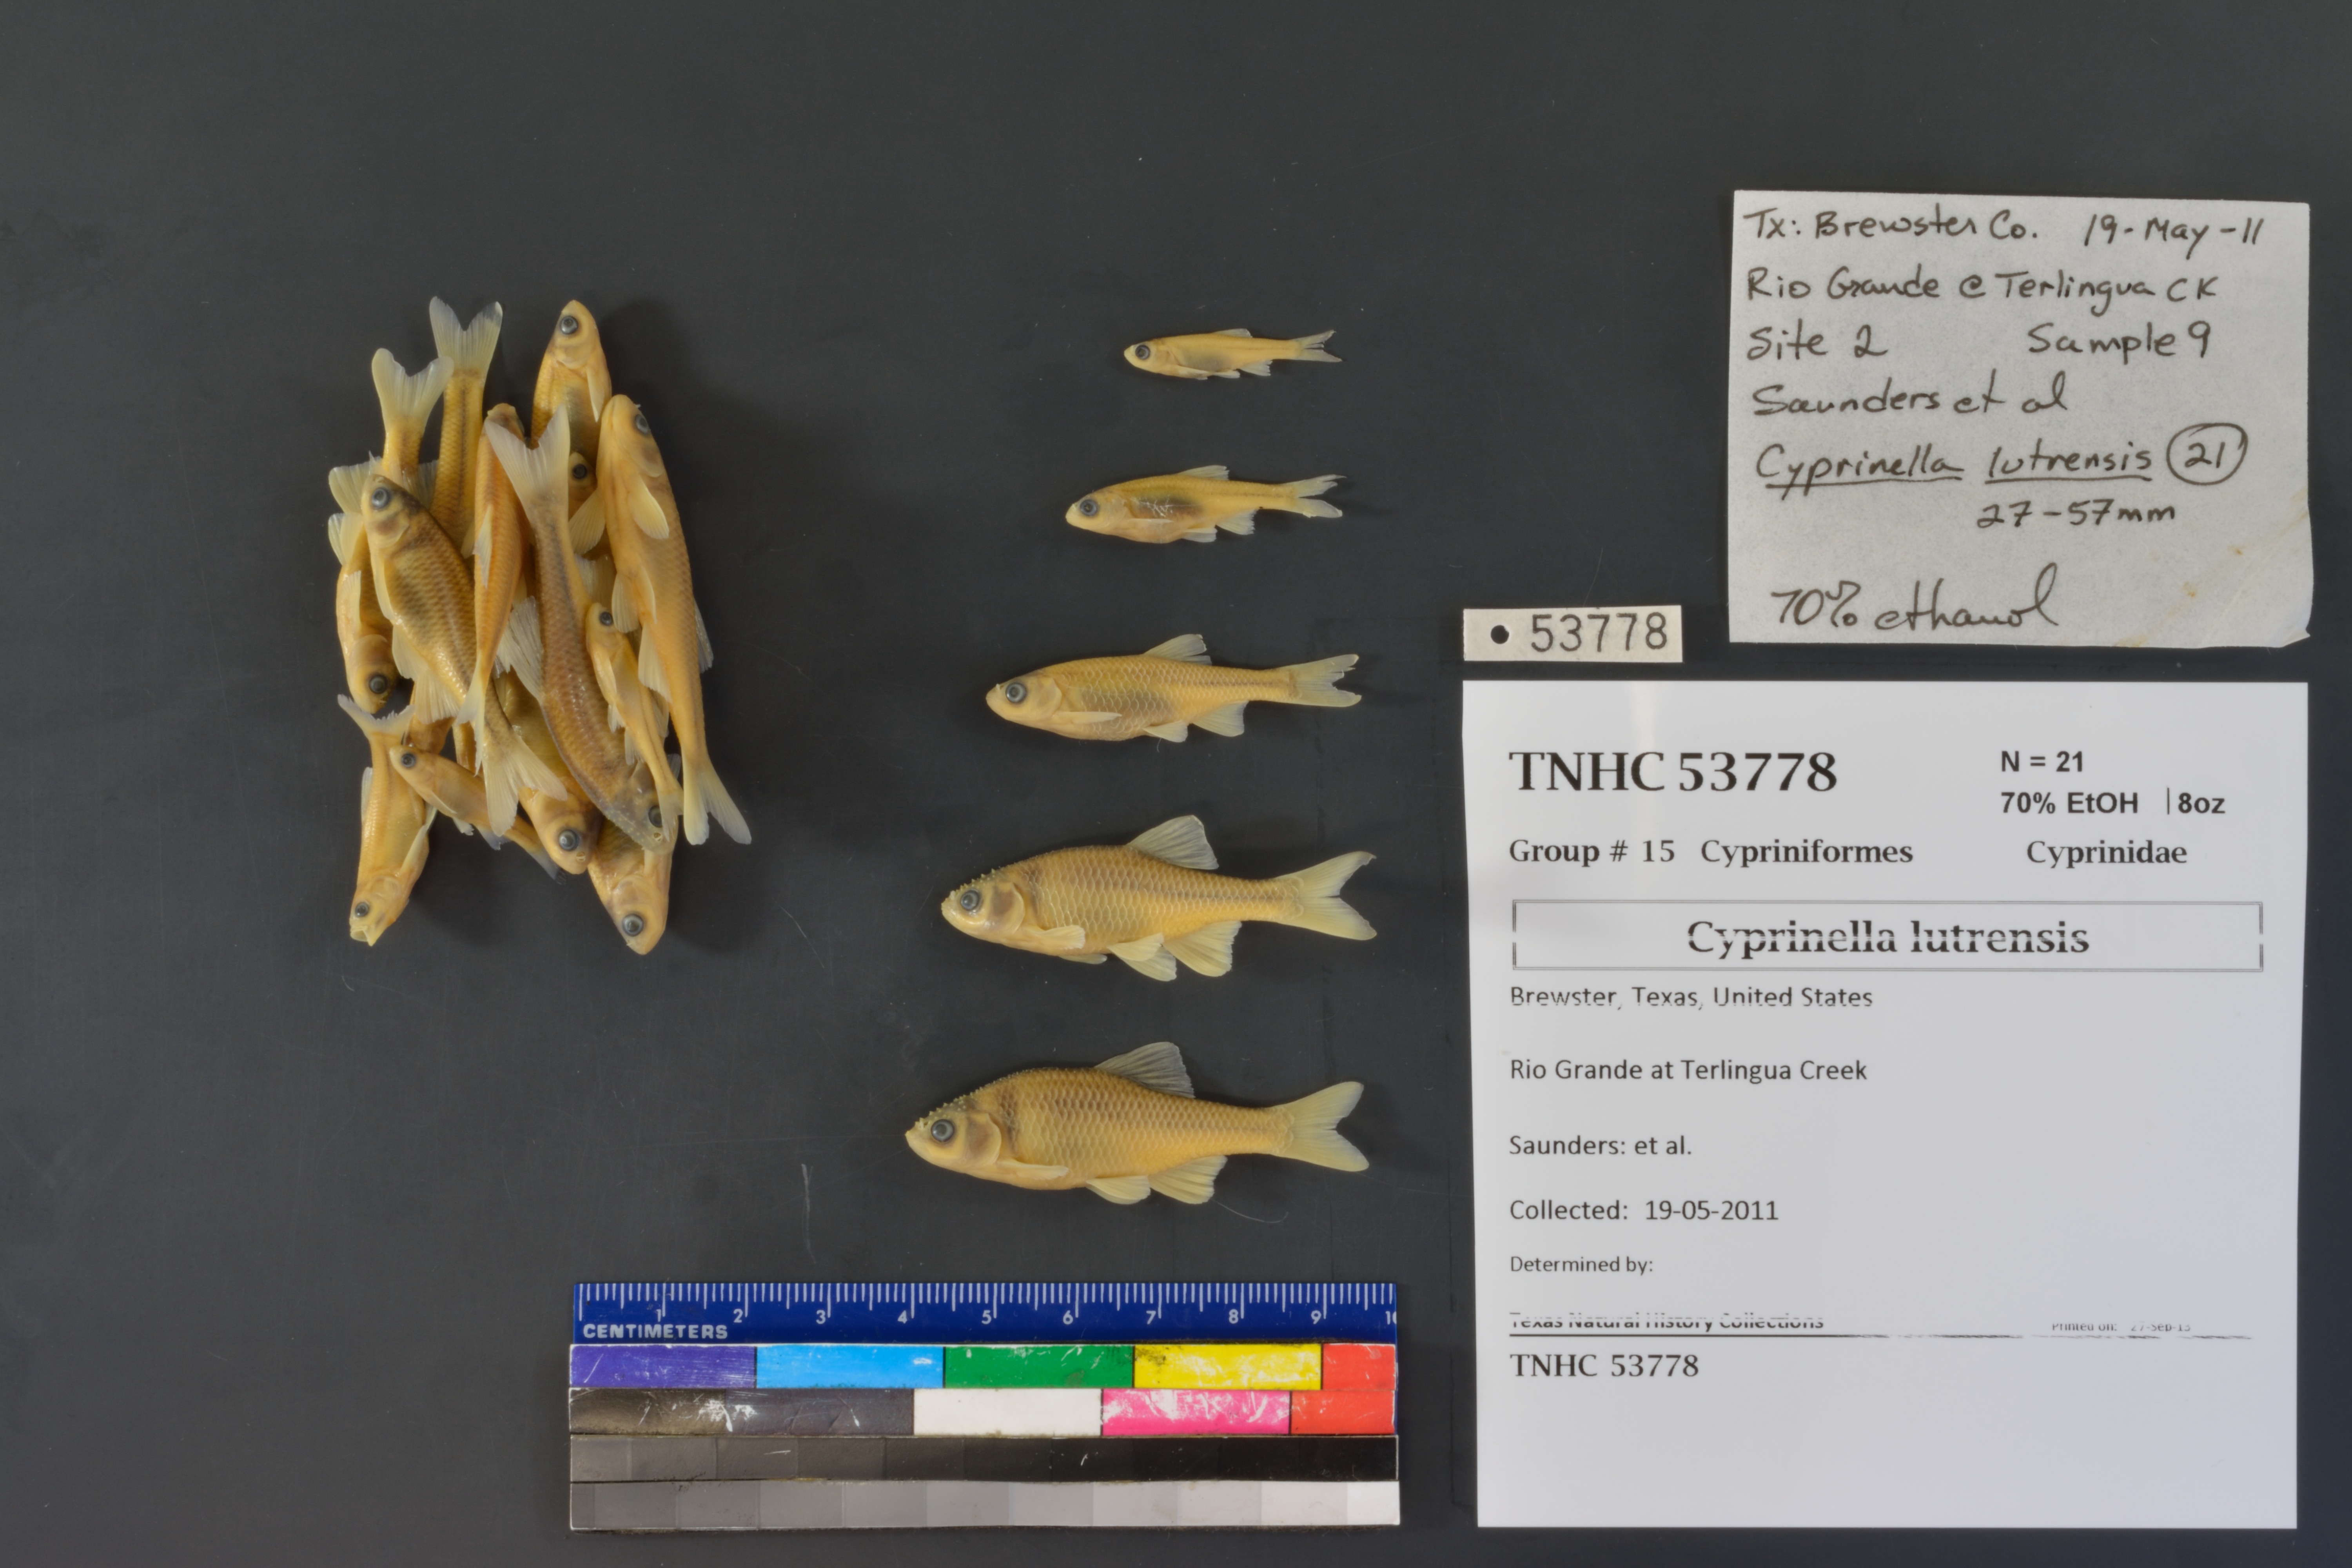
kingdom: Animalia
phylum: Chordata
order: Cypriniformes
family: Cyprinidae
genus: Cyprinella
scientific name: Cyprinella lutrensis
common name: Red shiner
